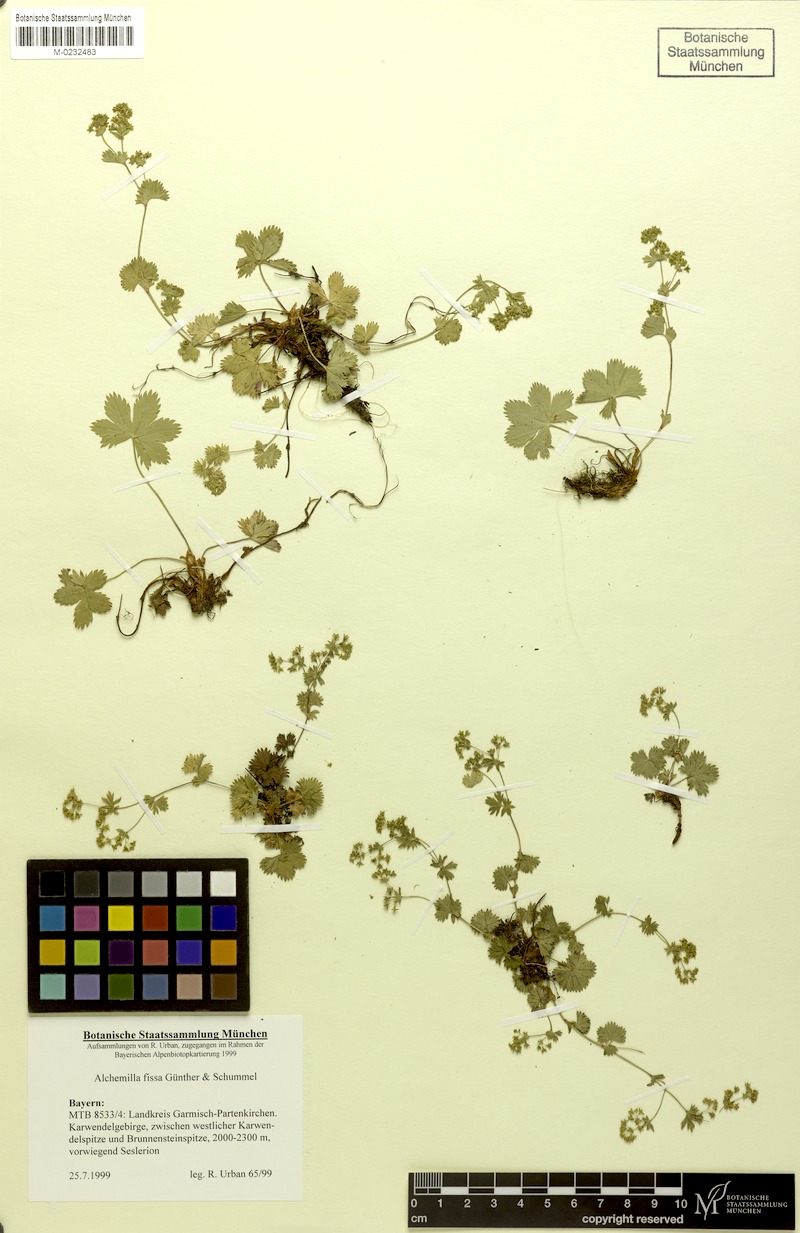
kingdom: Plantae
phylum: Tracheophyta
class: Magnoliopsida
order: Rosales
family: Rosaceae
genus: Alchemilla
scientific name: Alchemilla fissa
